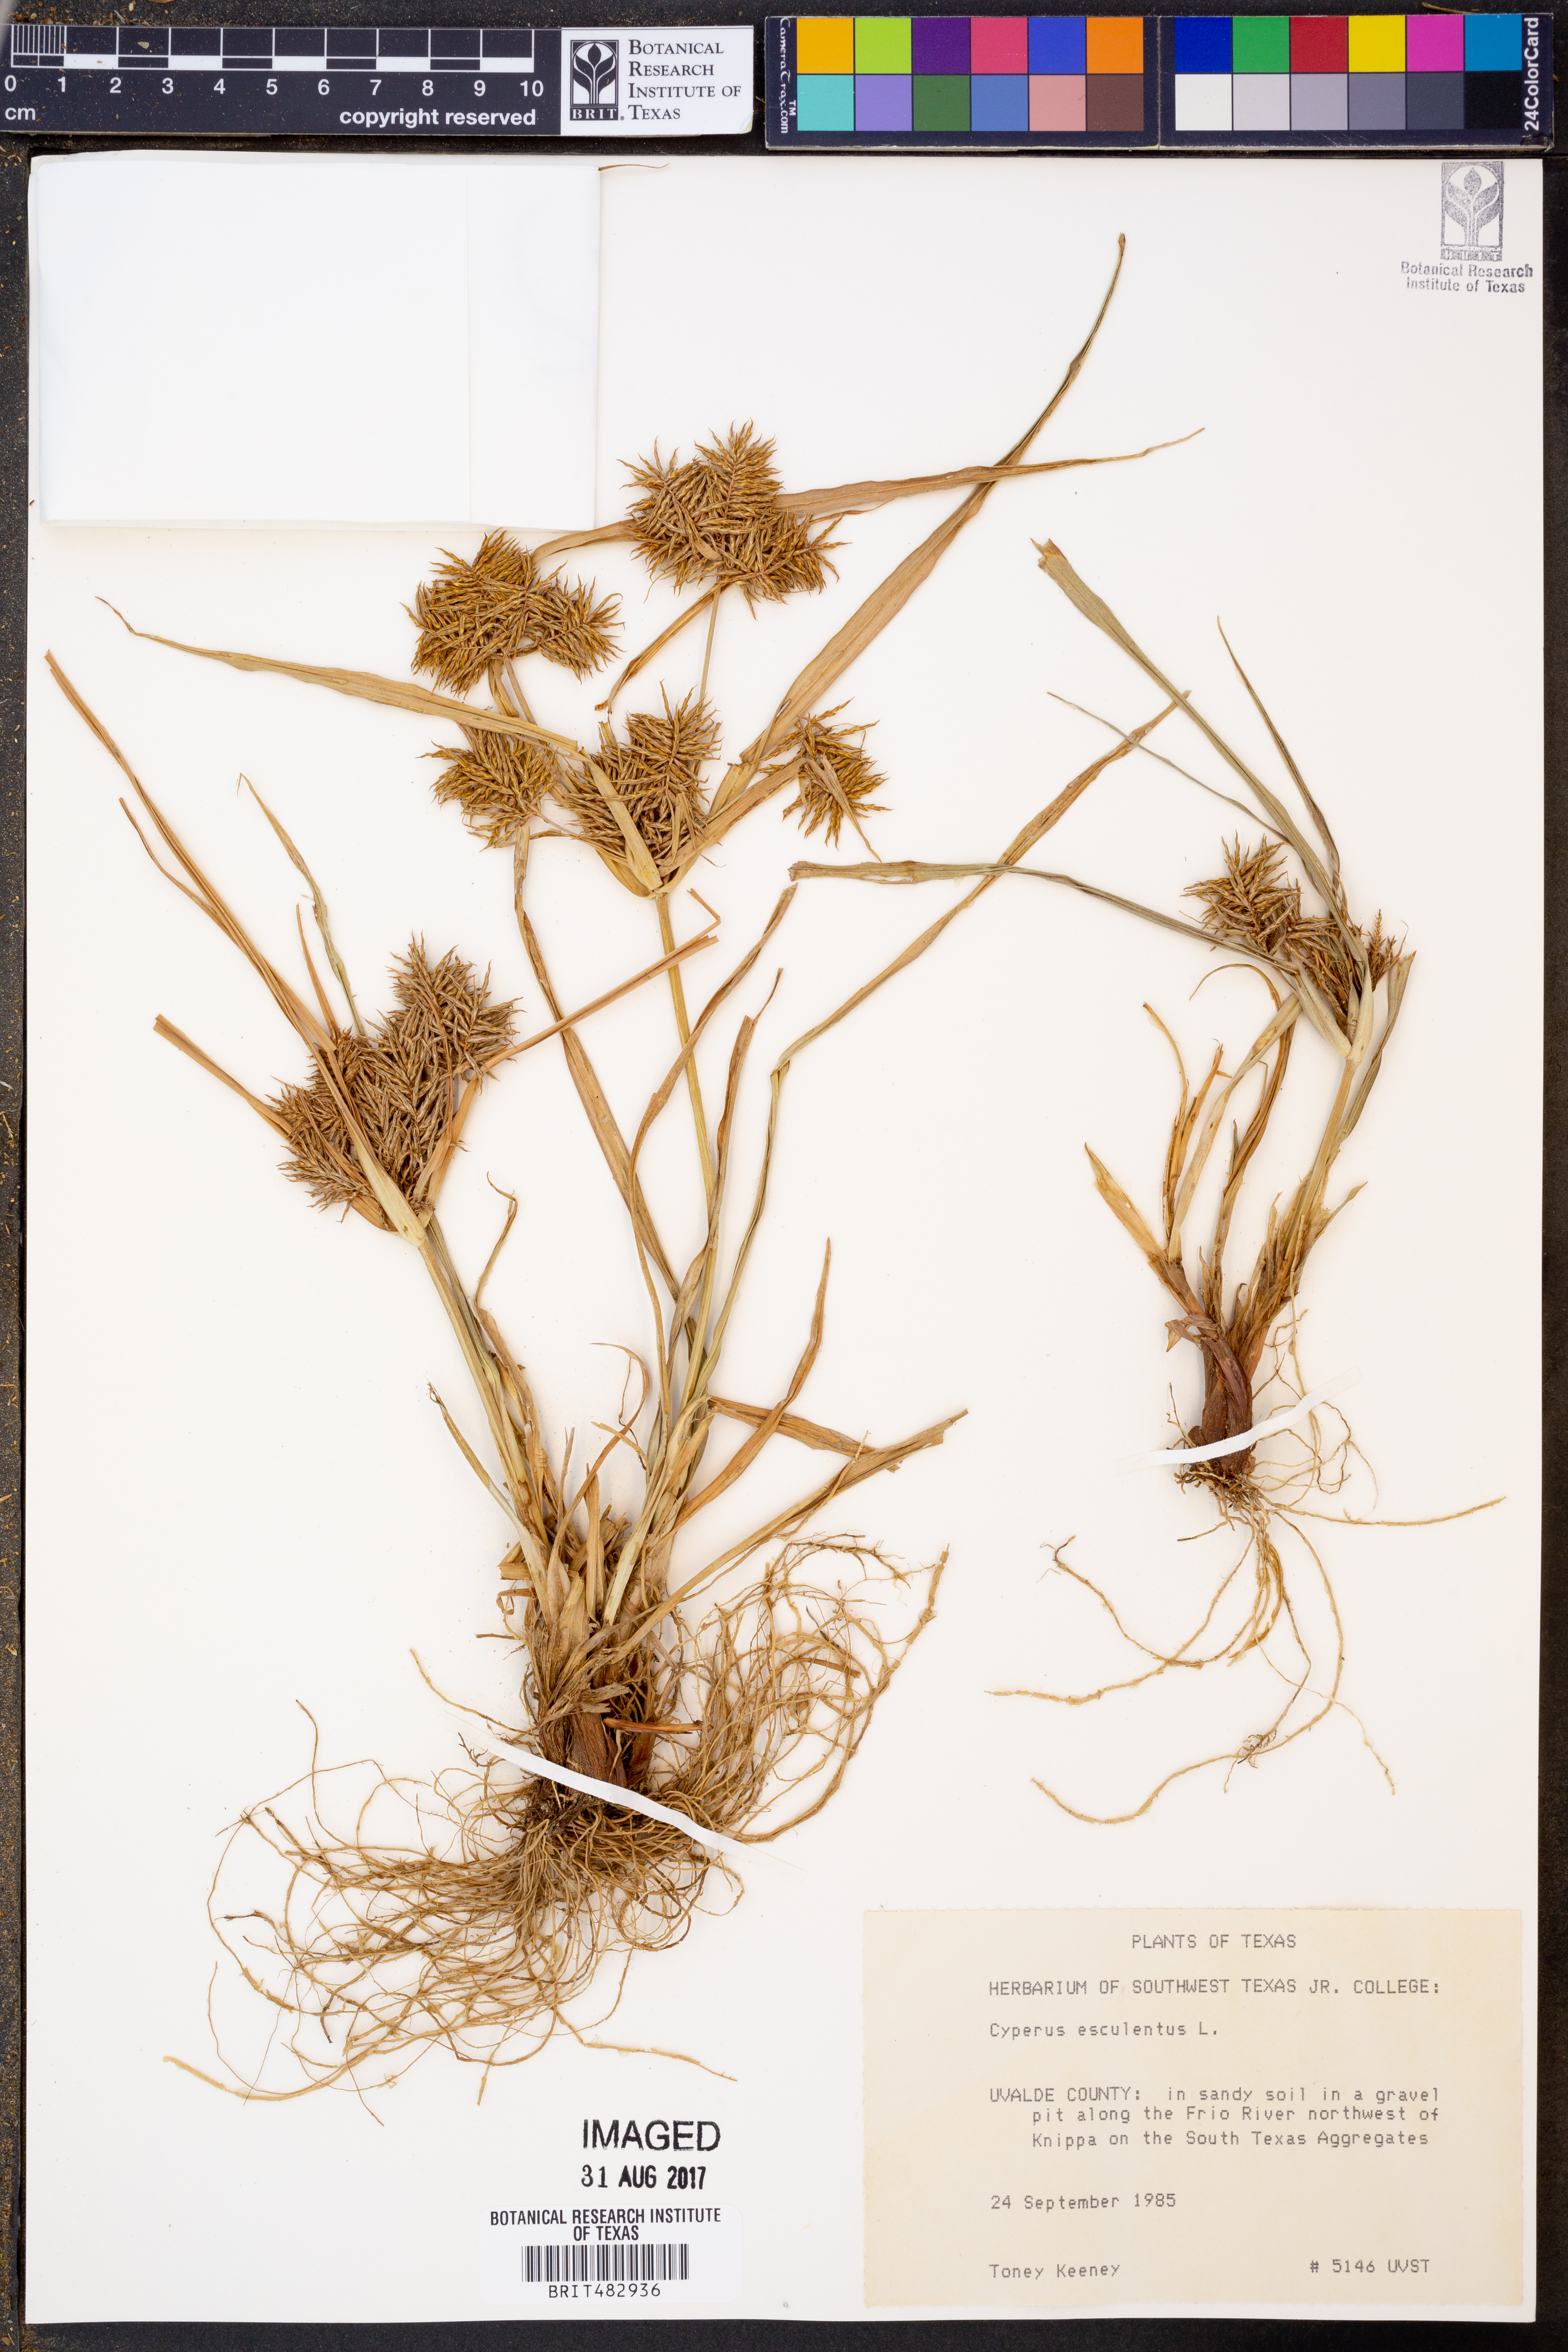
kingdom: Plantae
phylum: Tracheophyta
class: Liliopsida
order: Poales
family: Cyperaceae
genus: Cyperus
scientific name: Cyperus esculentus
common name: Yellow nutsedge
